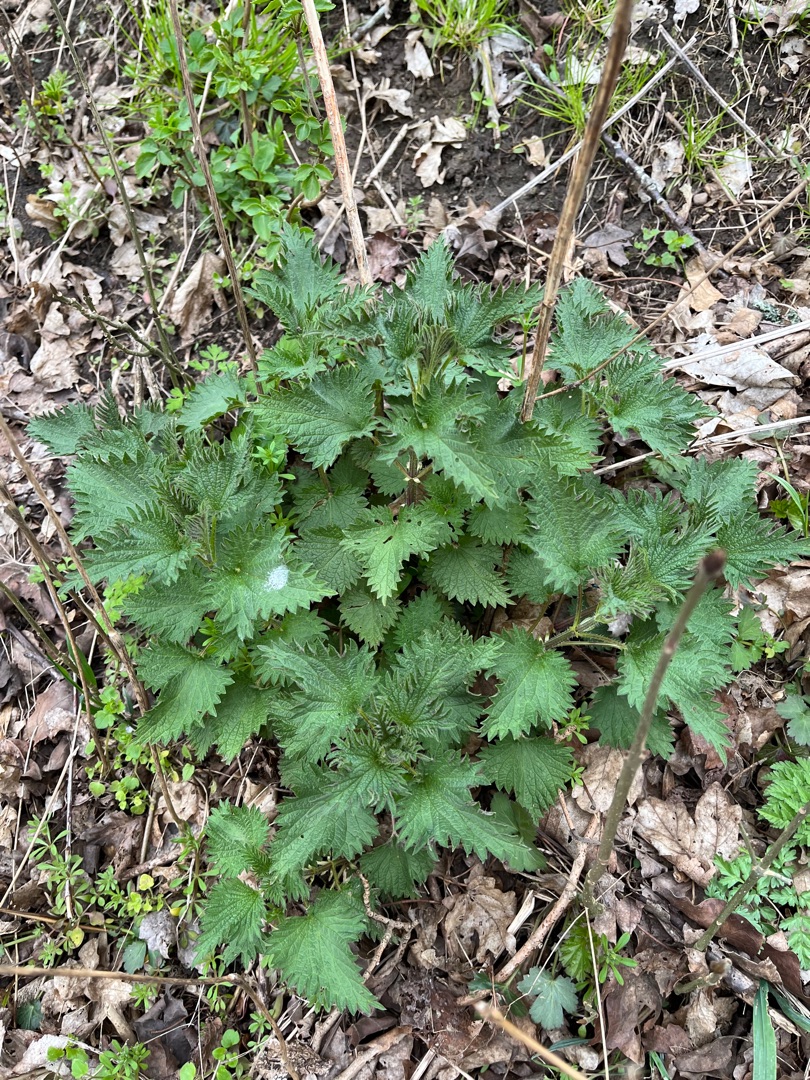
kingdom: Plantae
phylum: Tracheophyta
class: Magnoliopsida
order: Rosales
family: Urticaceae
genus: Urtica
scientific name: Urtica dioica
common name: Stor nælde
